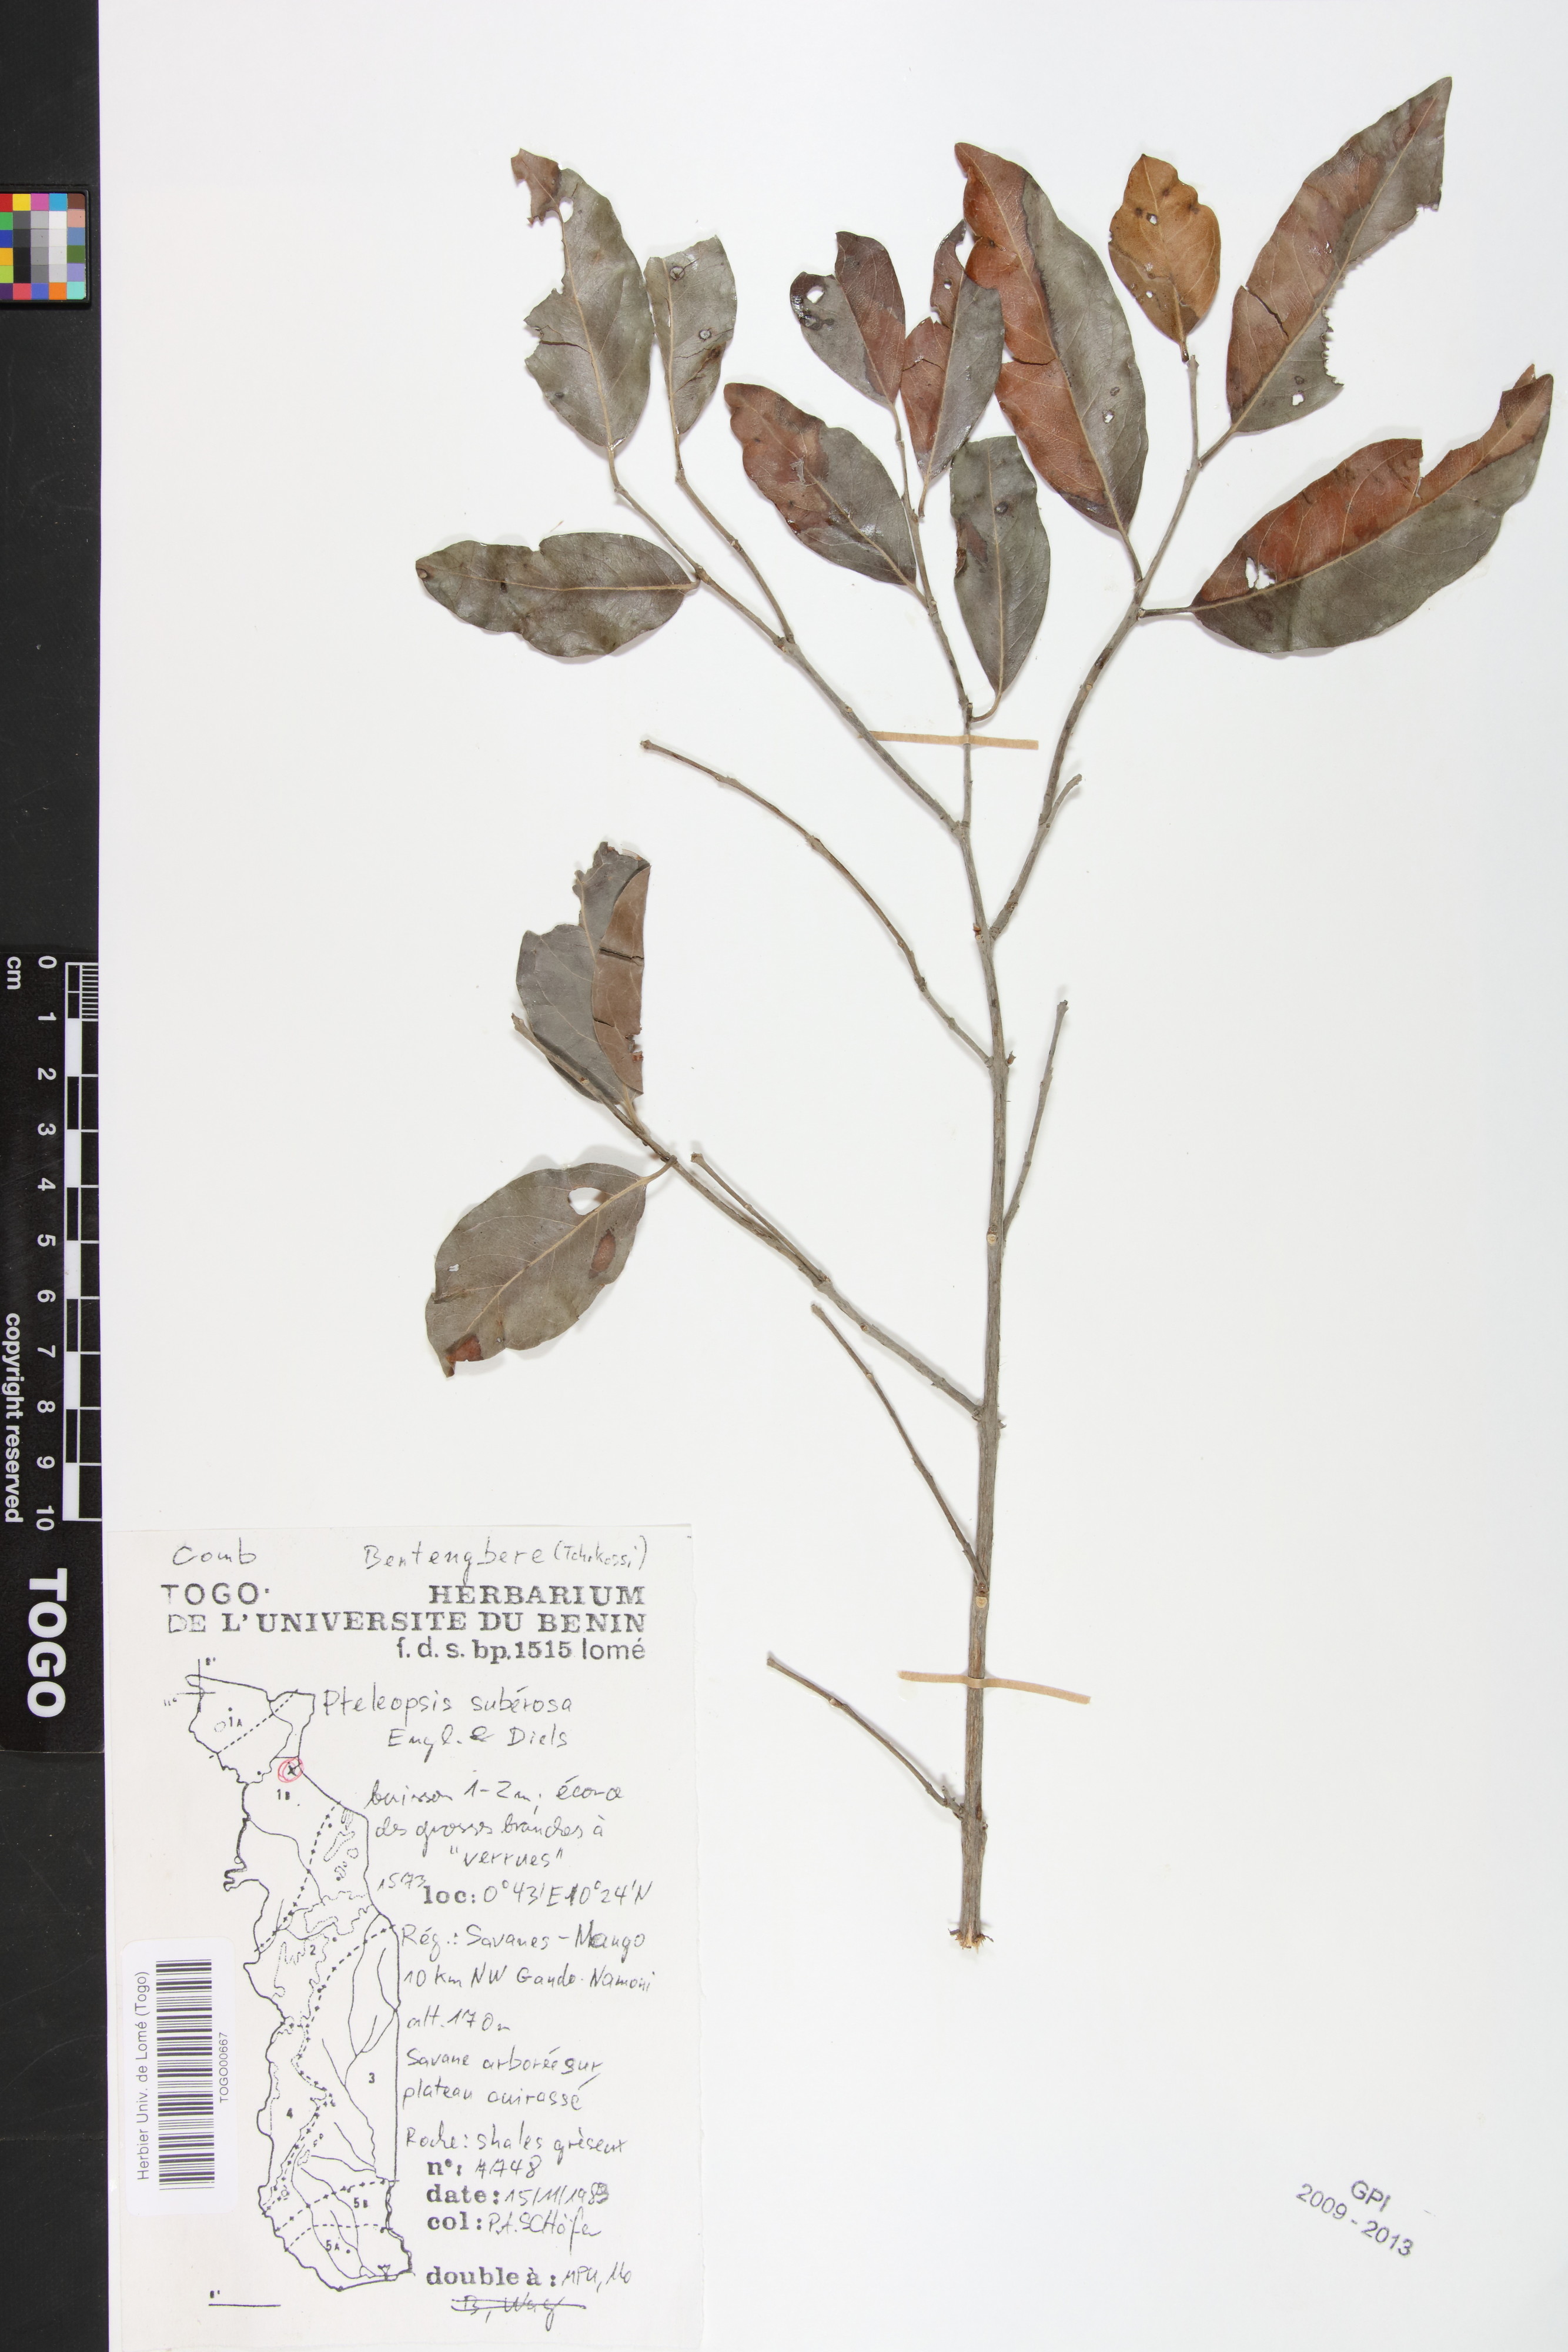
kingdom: Plantae
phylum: Tracheophyta
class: Magnoliopsida
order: Myrtales
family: Combretaceae
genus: Terminalia
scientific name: Terminalia engleri
